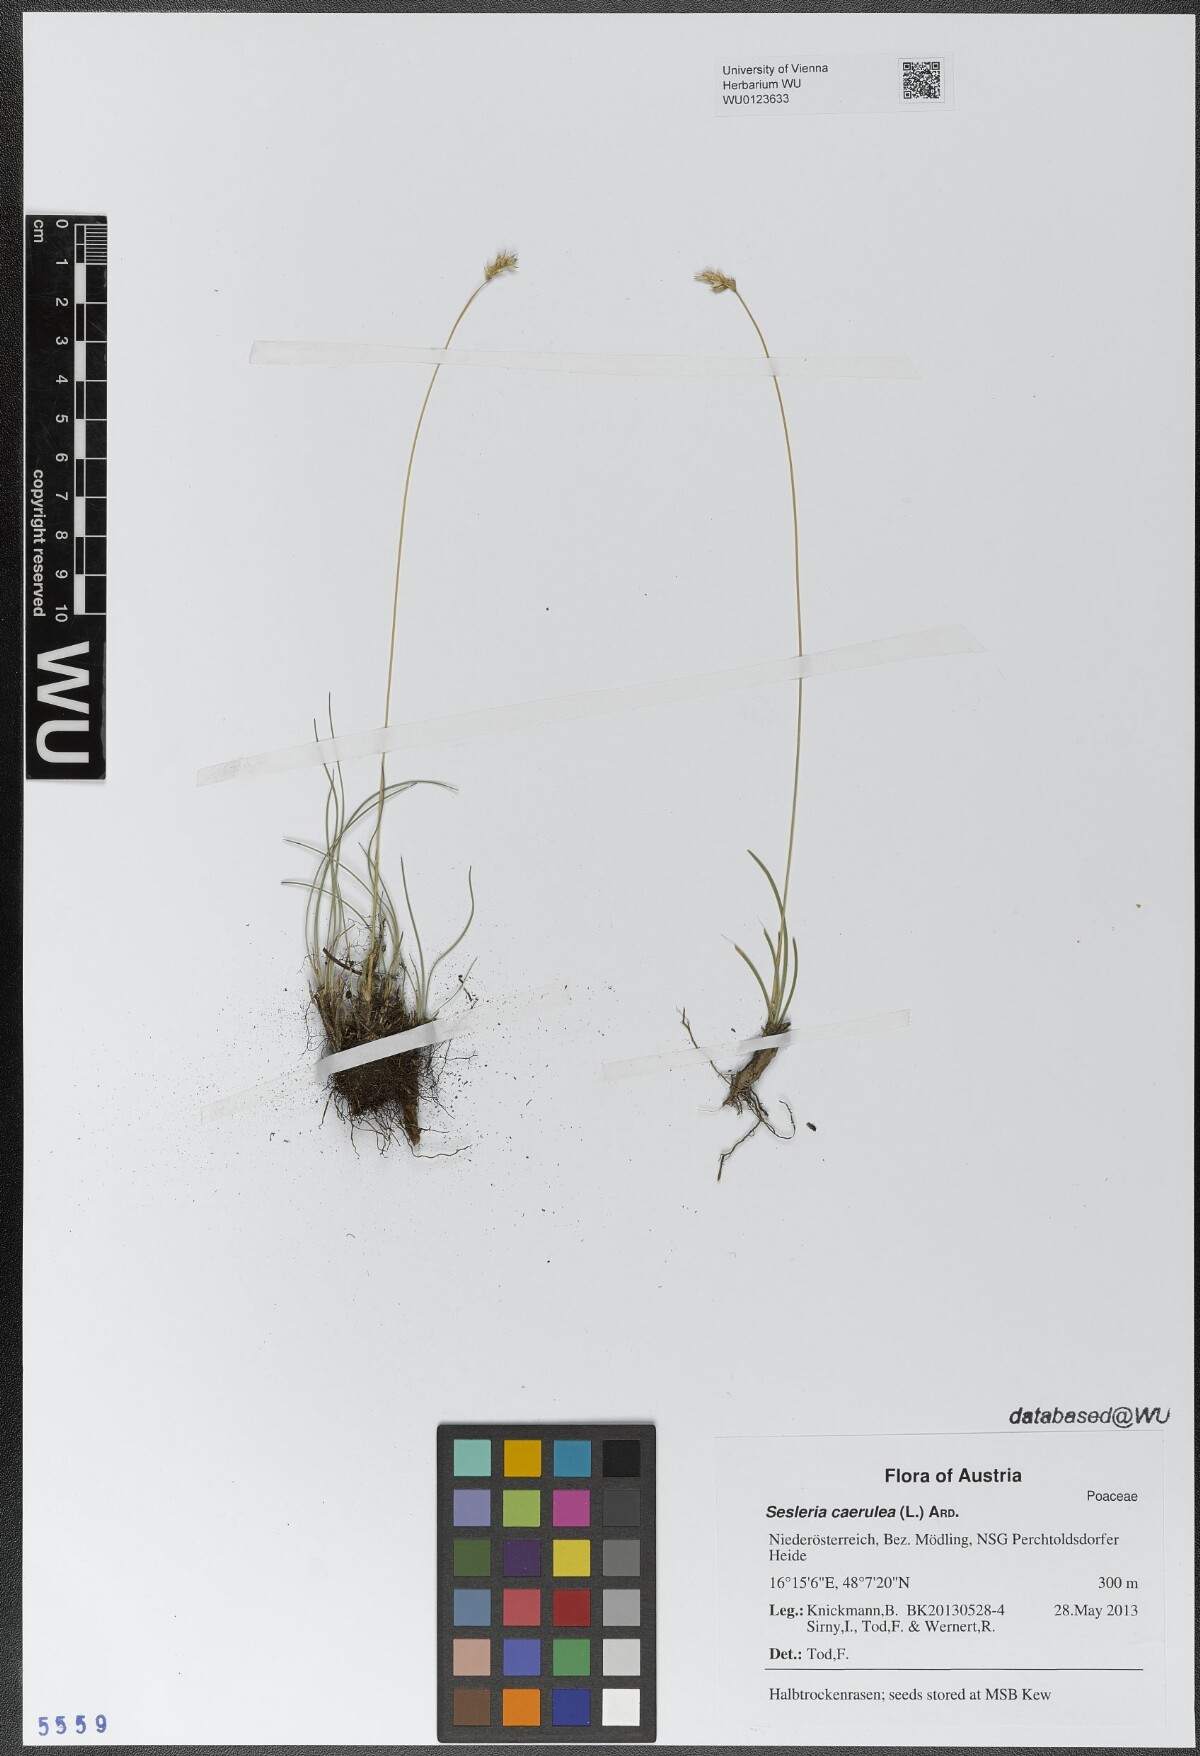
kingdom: Plantae
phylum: Tracheophyta
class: Liliopsida
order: Poales
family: Poaceae
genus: Sesleria
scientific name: Sesleria caerulea
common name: Blue moor-grass
